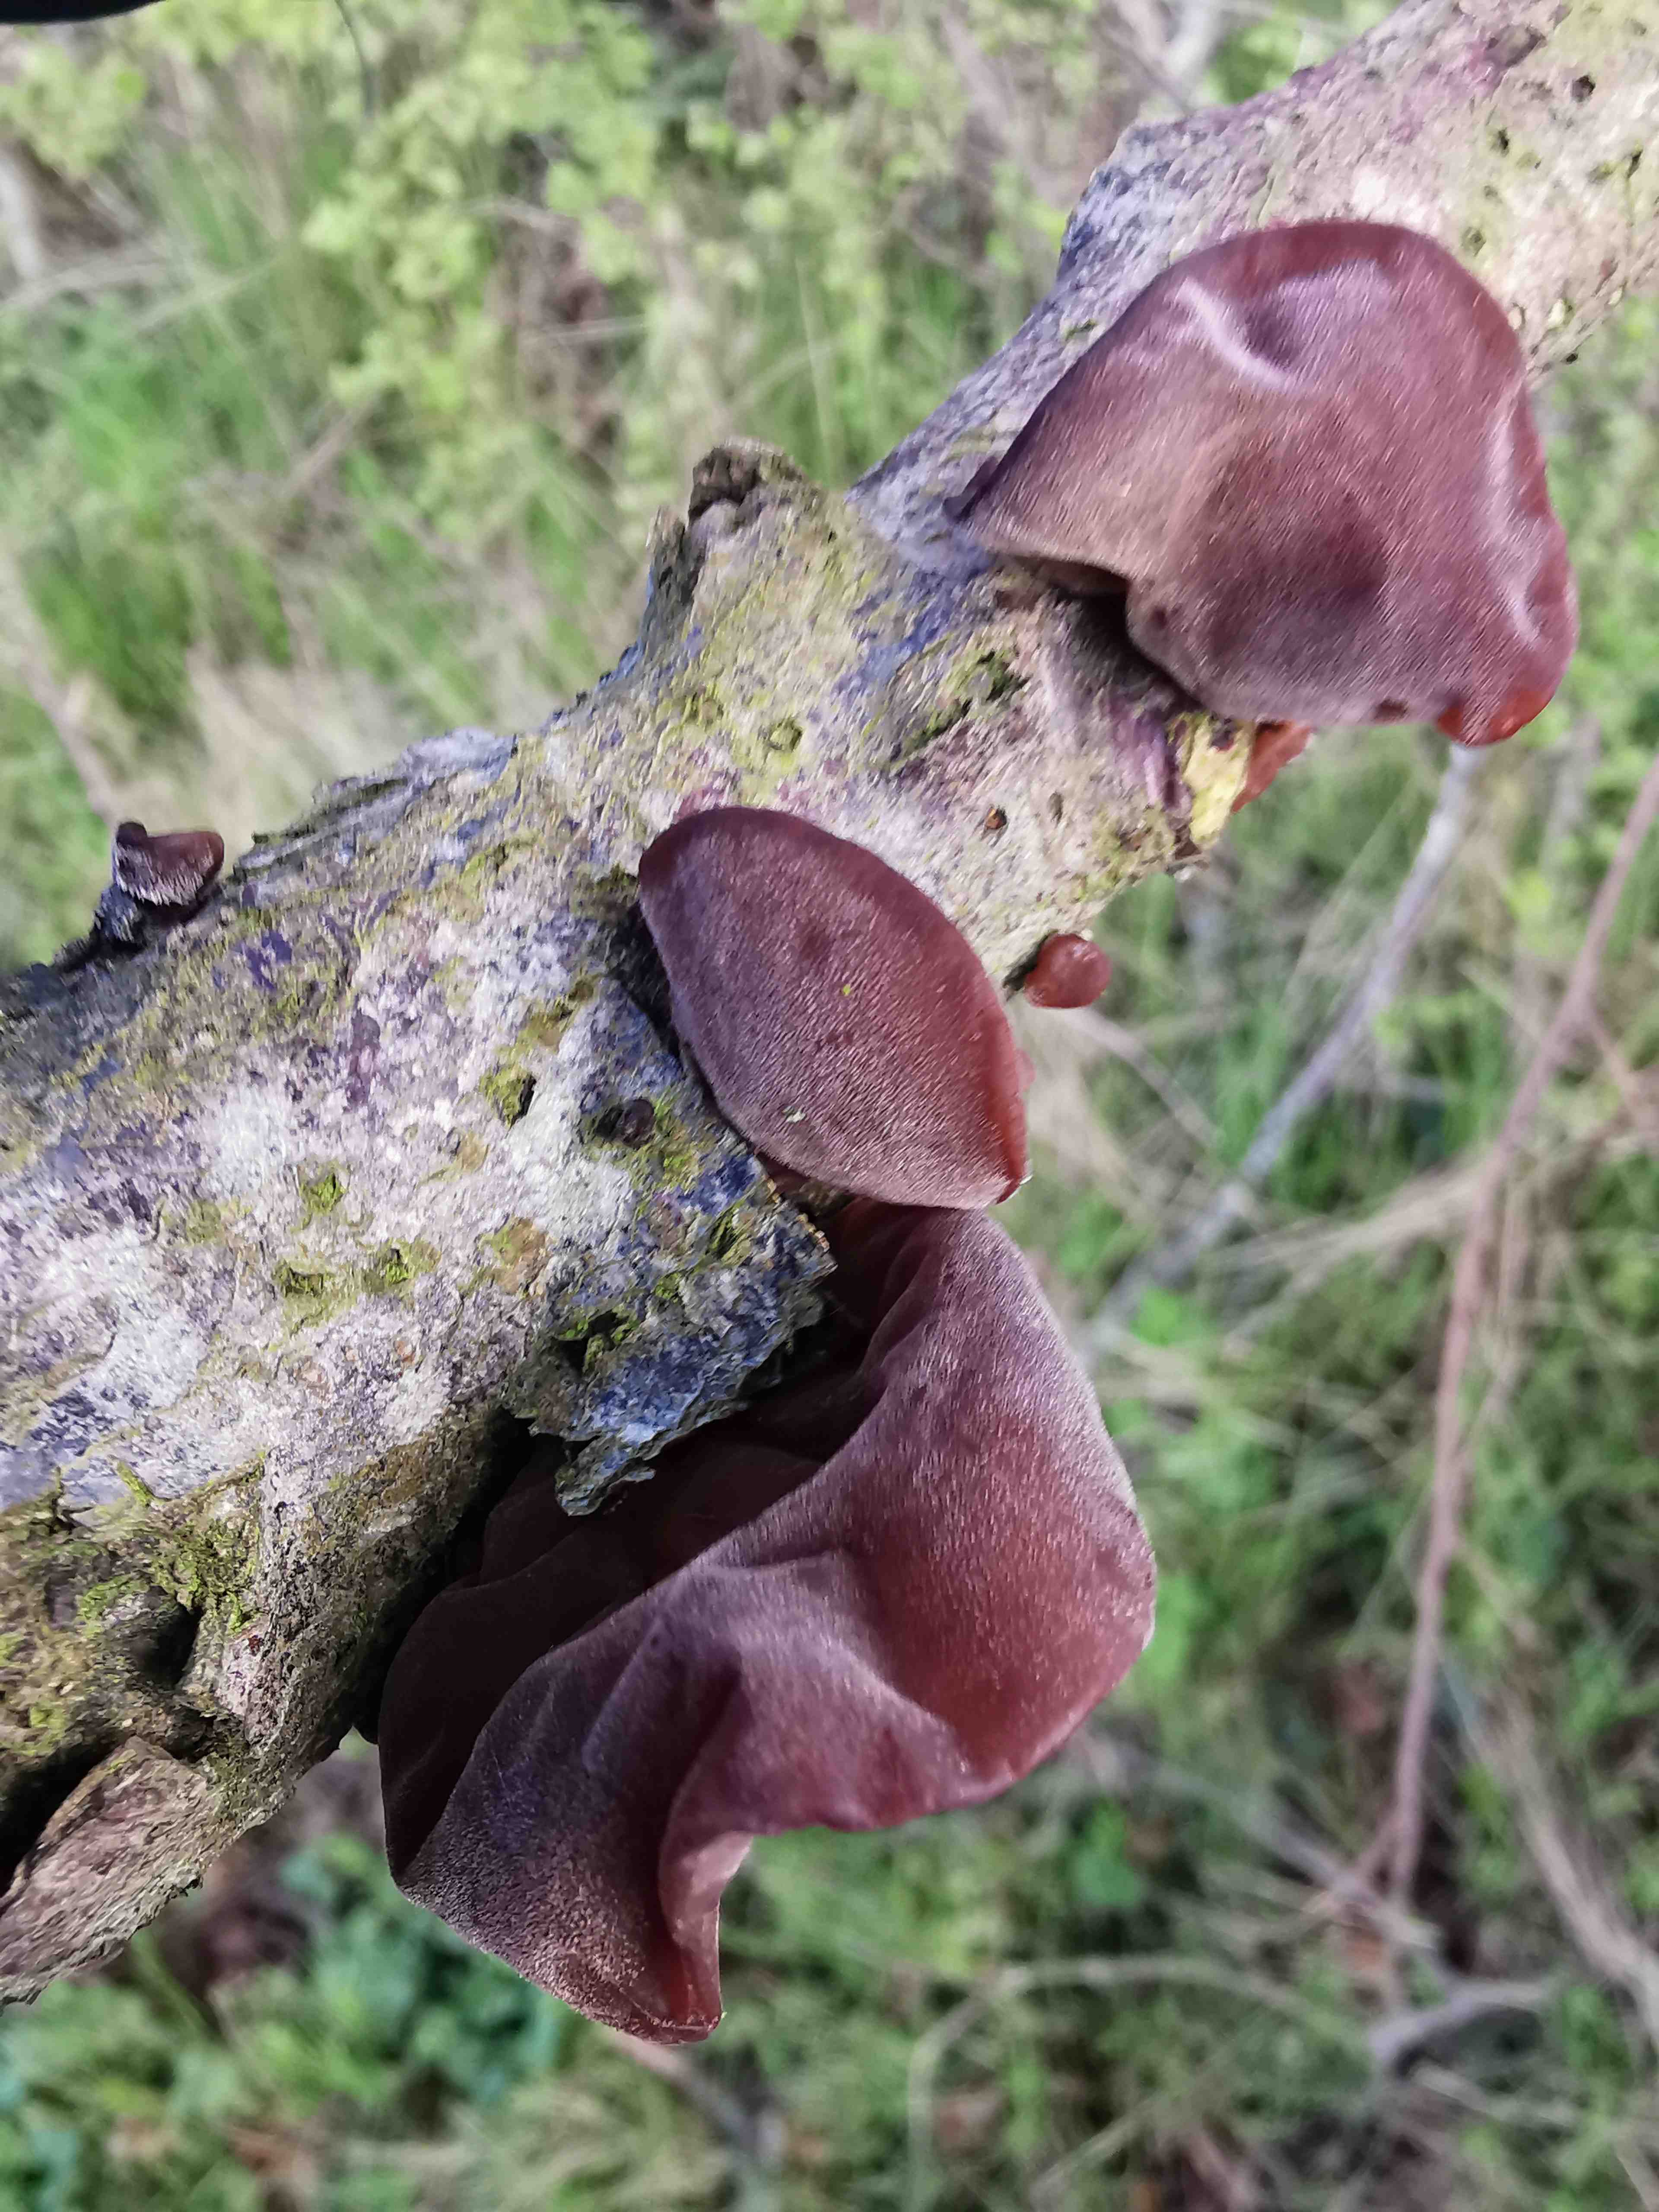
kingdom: Fungi
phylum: Basidiomycota
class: Agaricomycetes
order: Auriculariales
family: Auriculariaceae
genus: Auricularia
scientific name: Auricularia auricula-judae
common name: almindelig judasøre
